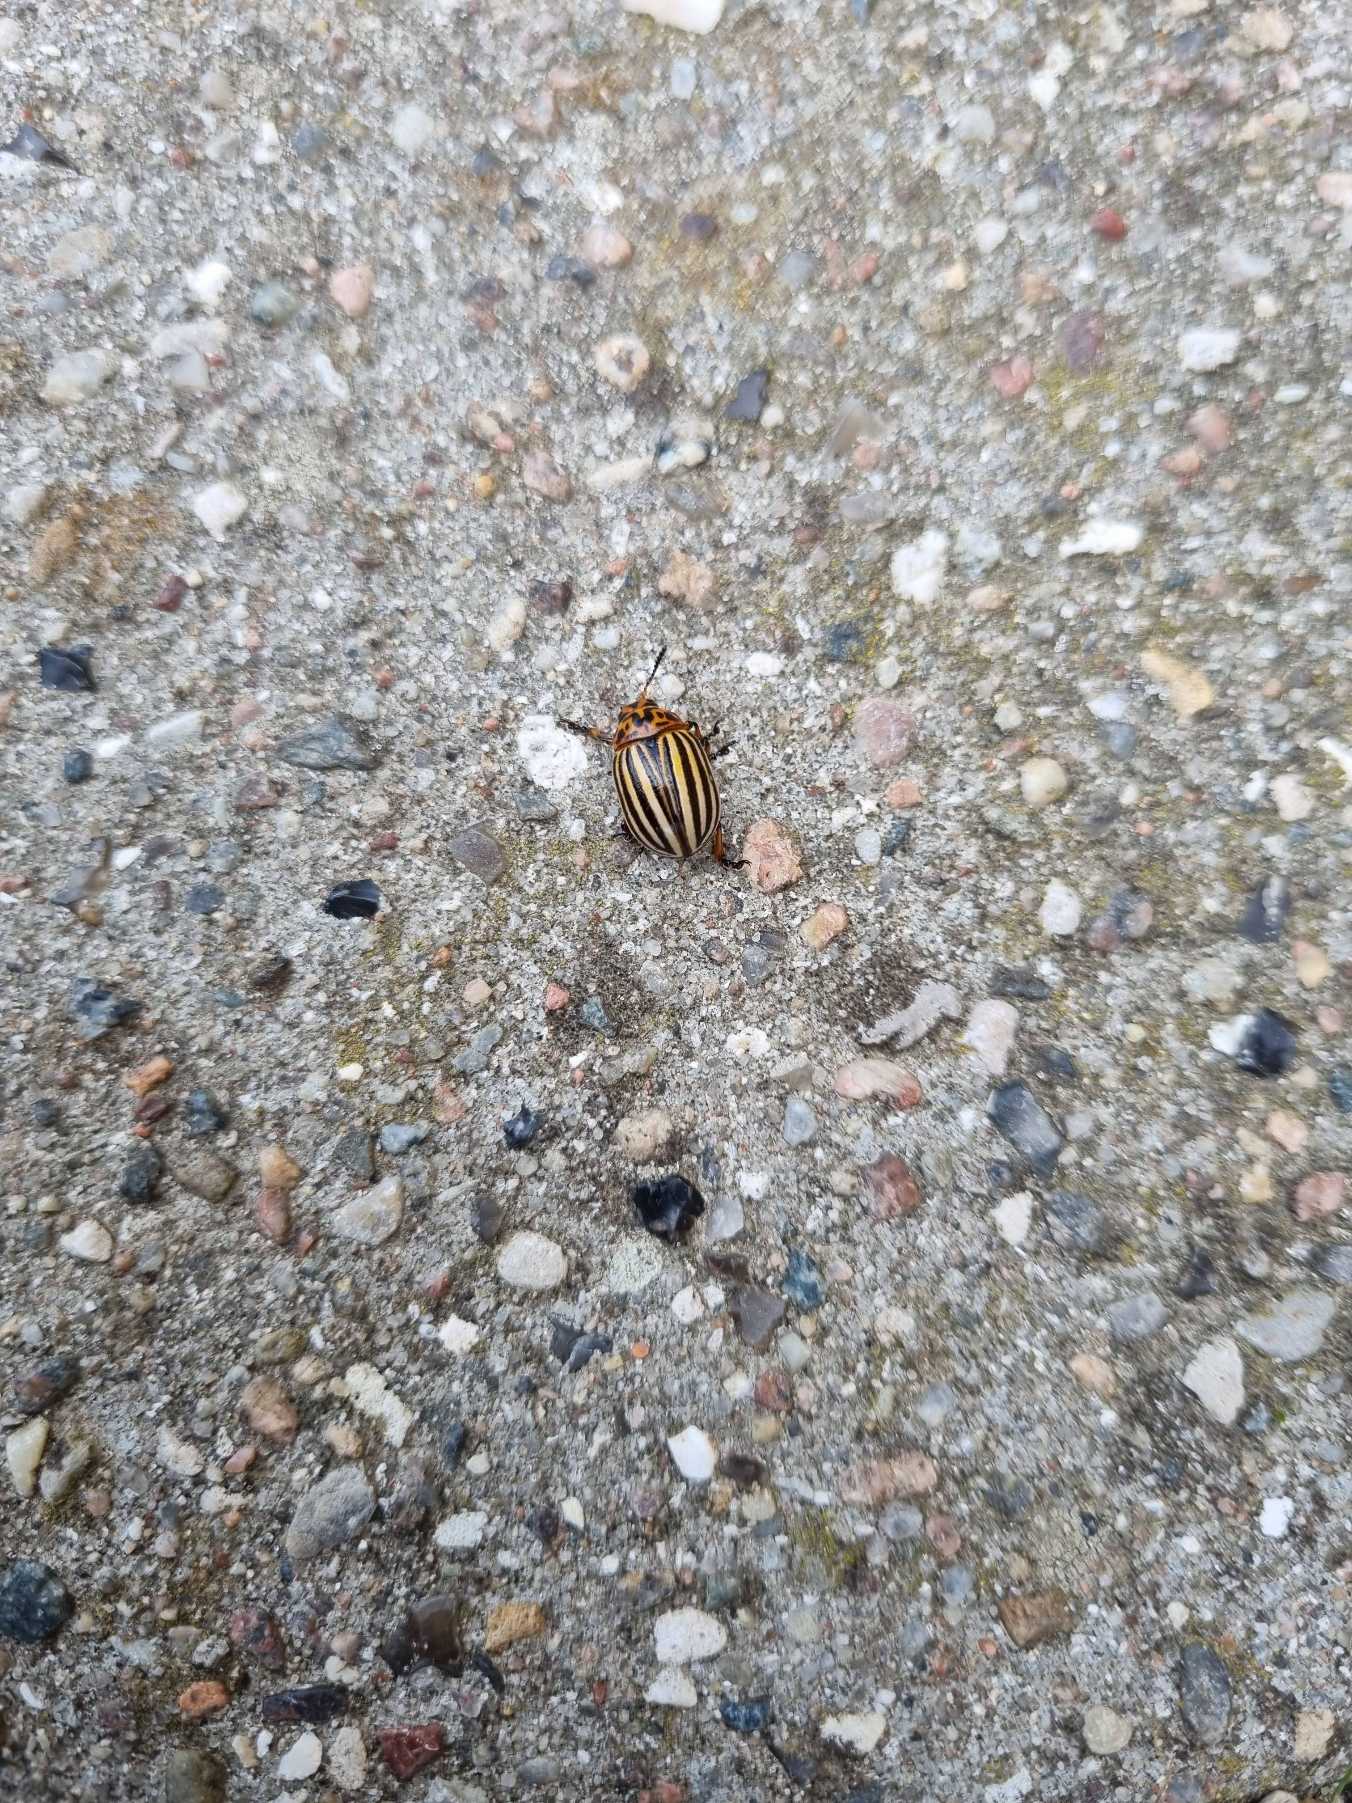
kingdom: Animalia
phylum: Arthropoda
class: Insecta
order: Coleoptera
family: Chrysomelidae
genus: Leptinotarsa
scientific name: Leptinotarsa decemlineata
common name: Coloradobille
